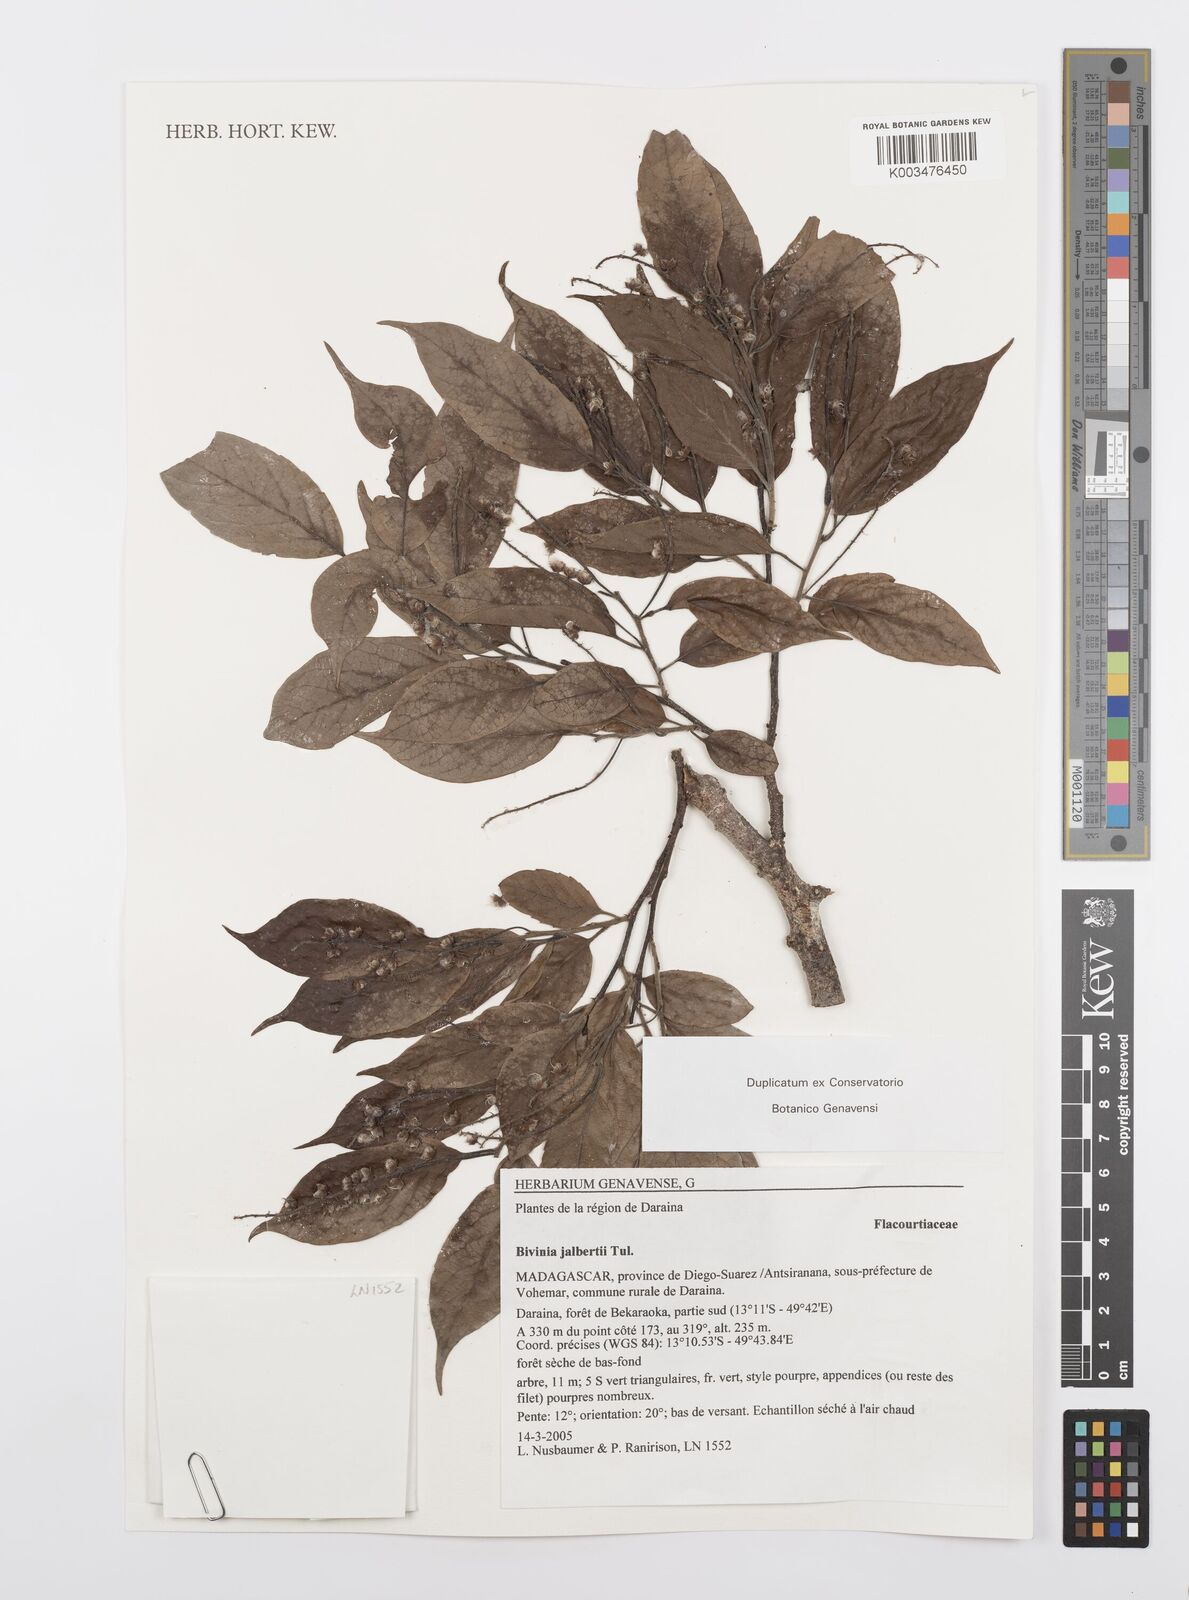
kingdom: Plantae
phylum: Tracheophyta
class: Magnoliopsida
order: Malpighiales
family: Salicaceae
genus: Bivinia
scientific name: Bivinia jalbertii
